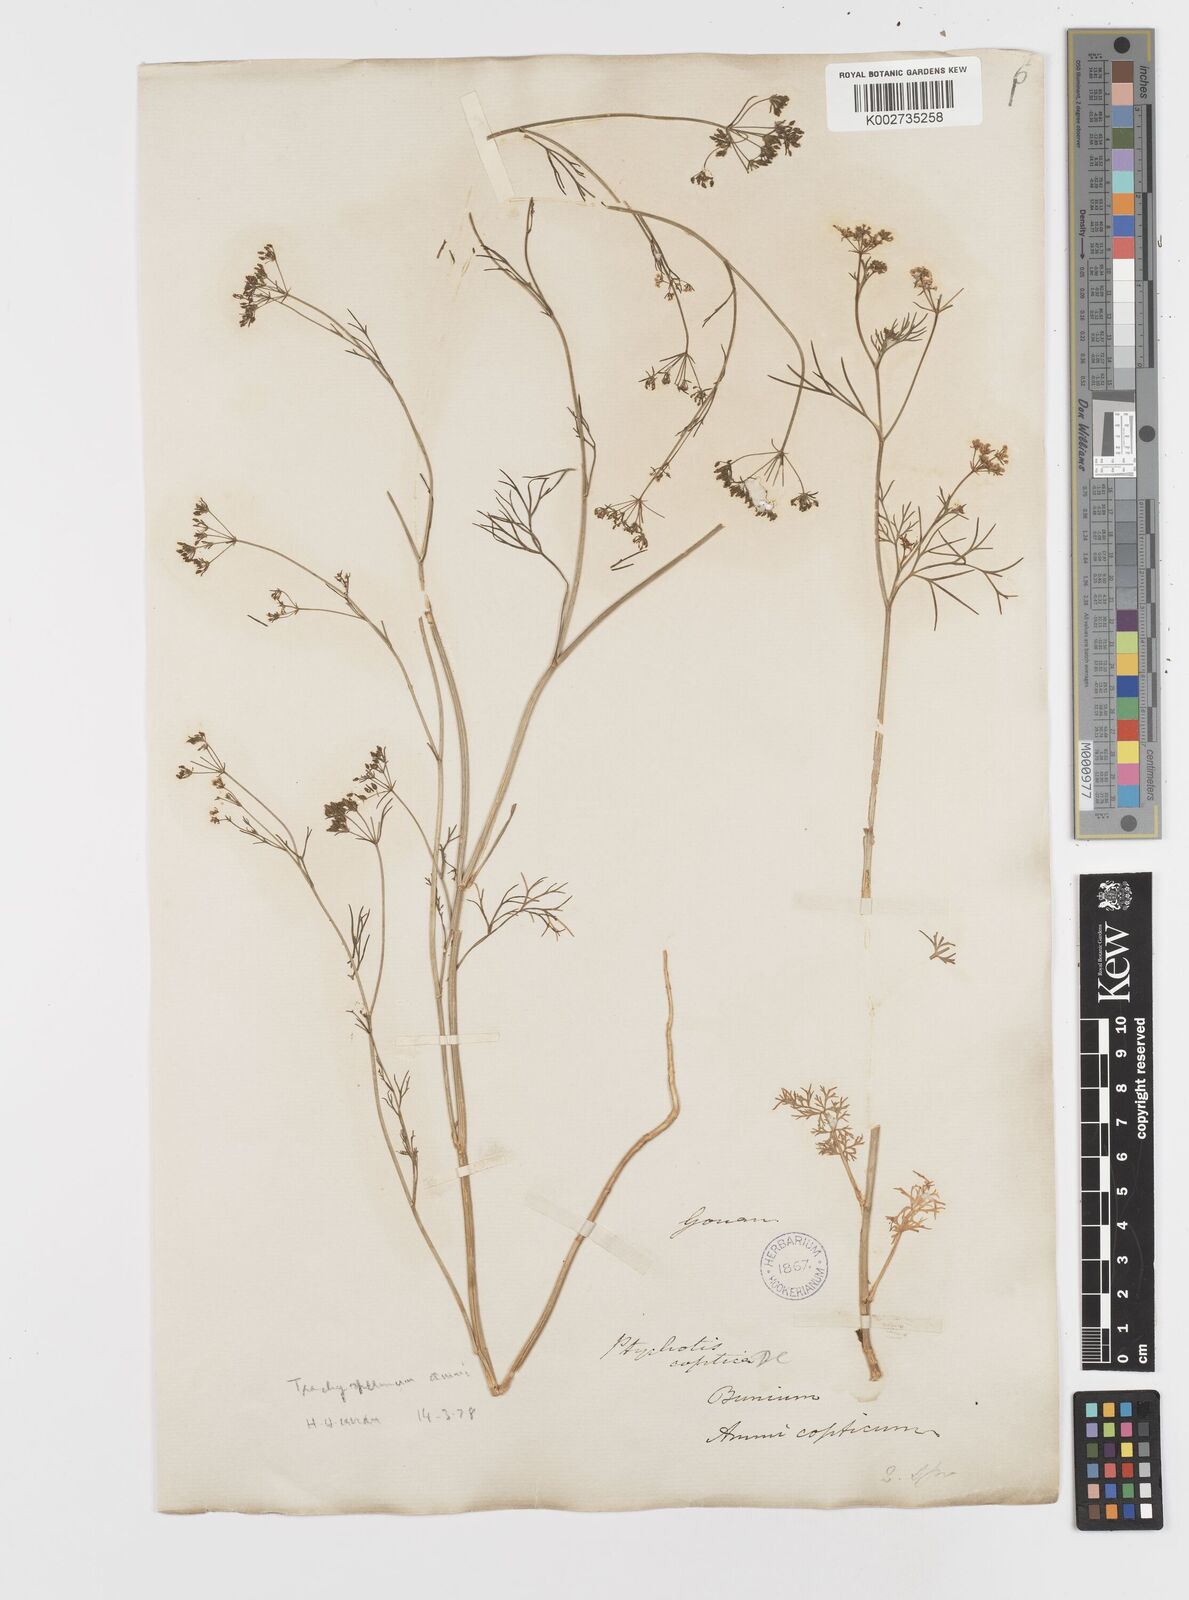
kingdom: Plantae
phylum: Tracheophyta
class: Magnoliopsida
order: Apiales
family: Apiaceae
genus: Trachyspermum
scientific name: Trachyspermum ammi
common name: Ajowan
